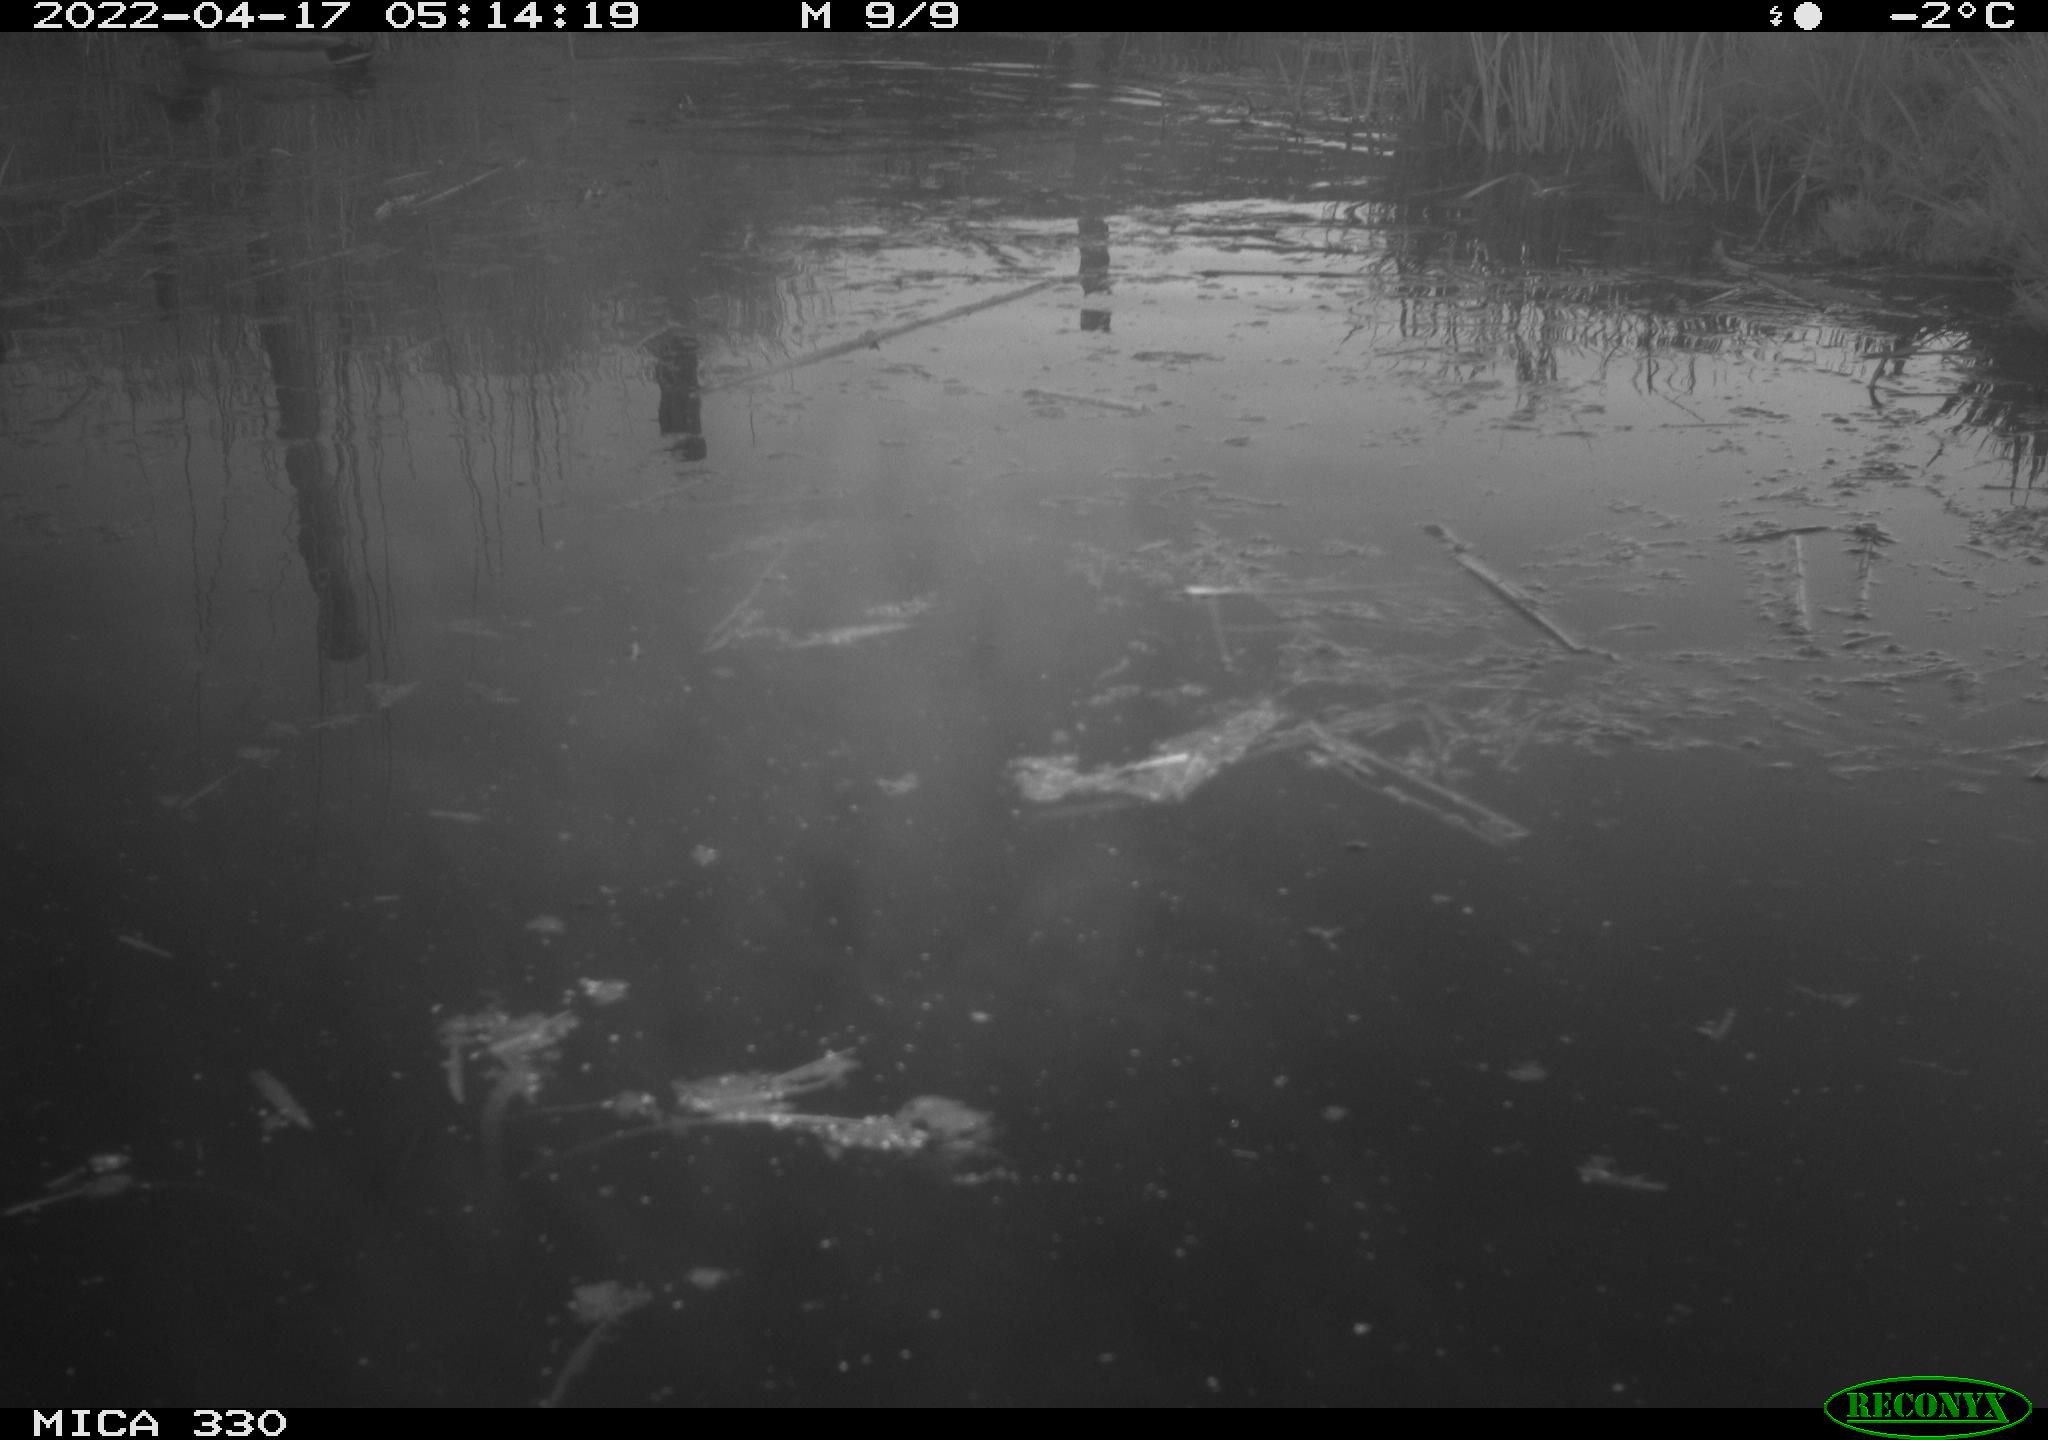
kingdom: Animalia
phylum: Chordata
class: Aves
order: Anseriformes
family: Anatidae
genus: Anas
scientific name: Anas platyrhynchos
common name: Mallard
